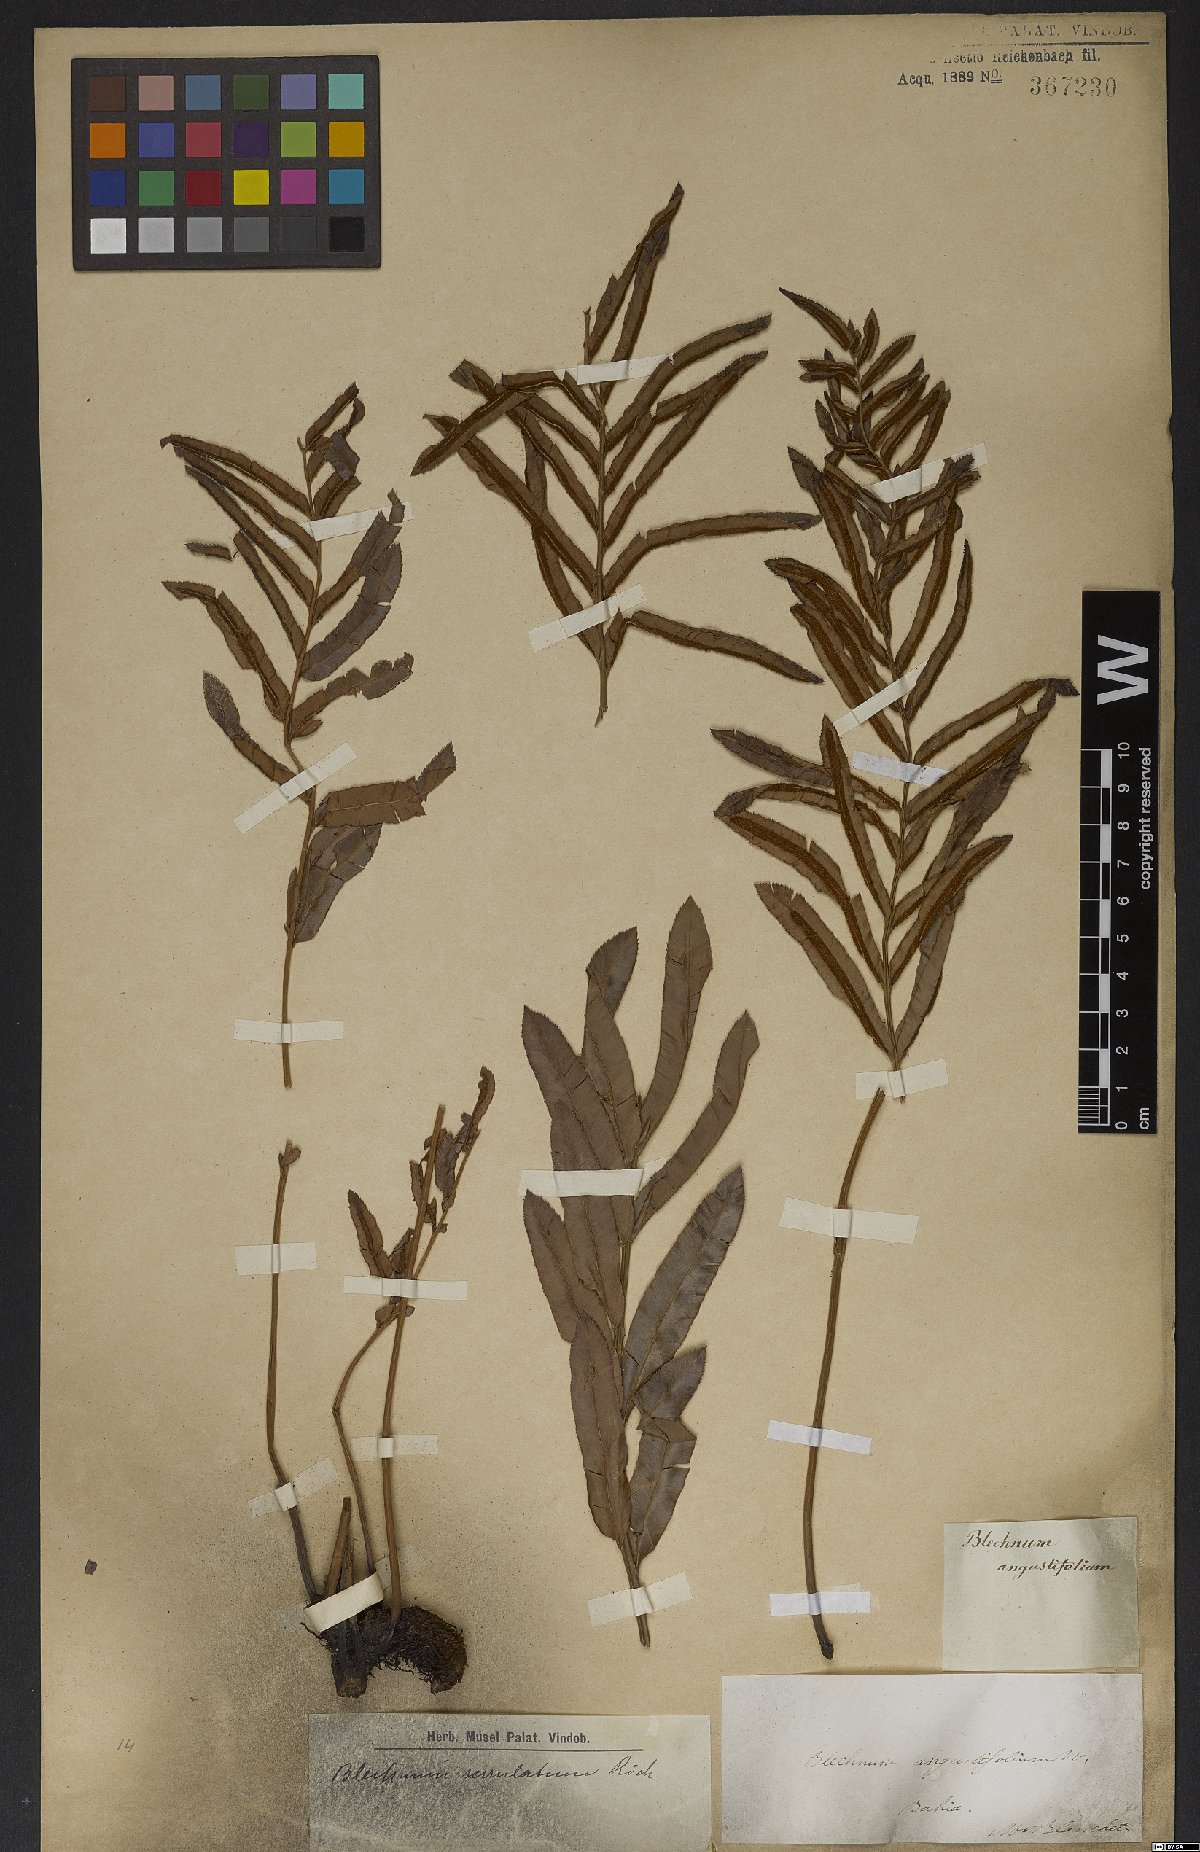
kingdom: Plantae
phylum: Tracheophyta
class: Polypodiopsida
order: Polypodiales
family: Blechnaceae
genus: Telmatoblechnum
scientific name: Telmatoblechnum serrulatum
